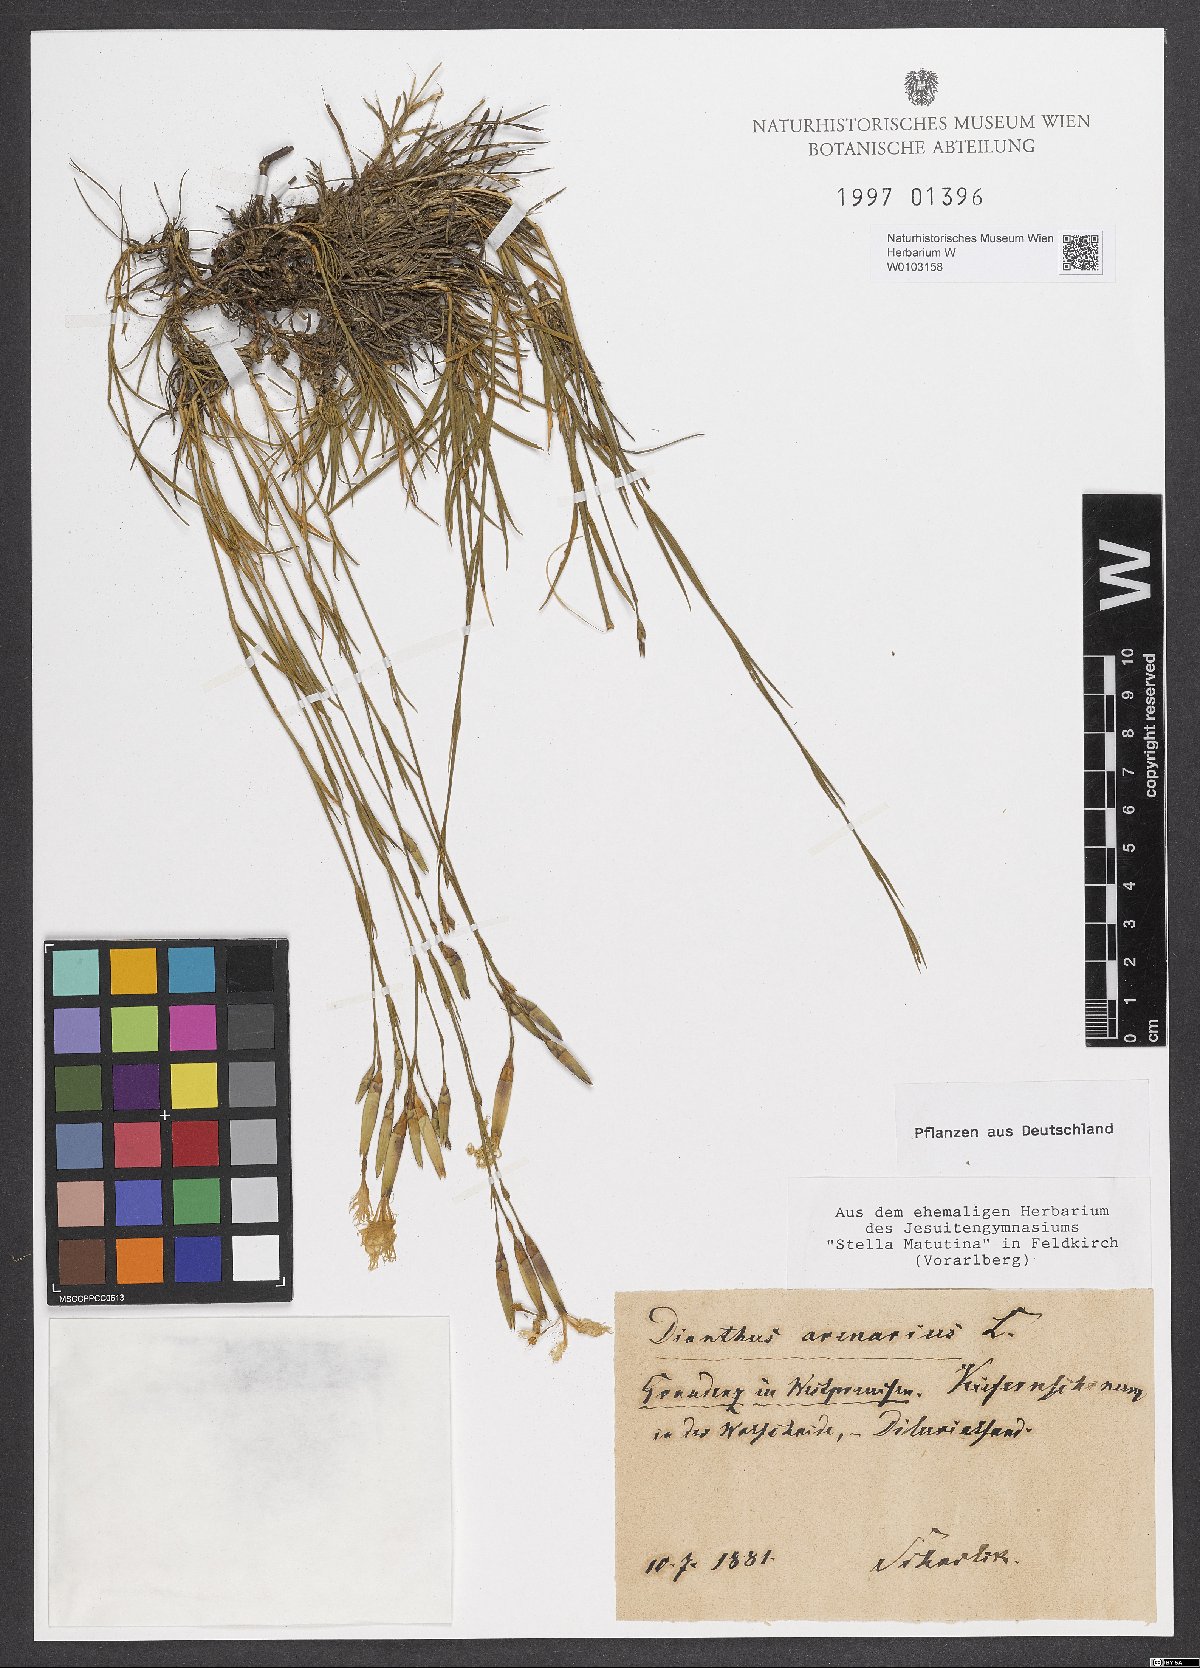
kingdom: Plantae
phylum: Tracheophyta
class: Magnoliopsida
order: Caryophyllales
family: Caryophyllaceae
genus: Dianthus
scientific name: Dianthus arenarius
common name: Stone pink
